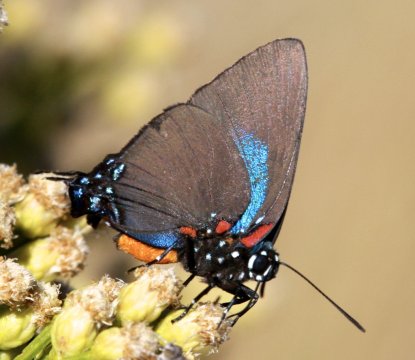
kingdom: Animalia
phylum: Arthropoda
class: Insecta
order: Lepidoptera
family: Lycaenidae
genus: Atlides
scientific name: Atlides halesus
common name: Great Purple Hairstreak
